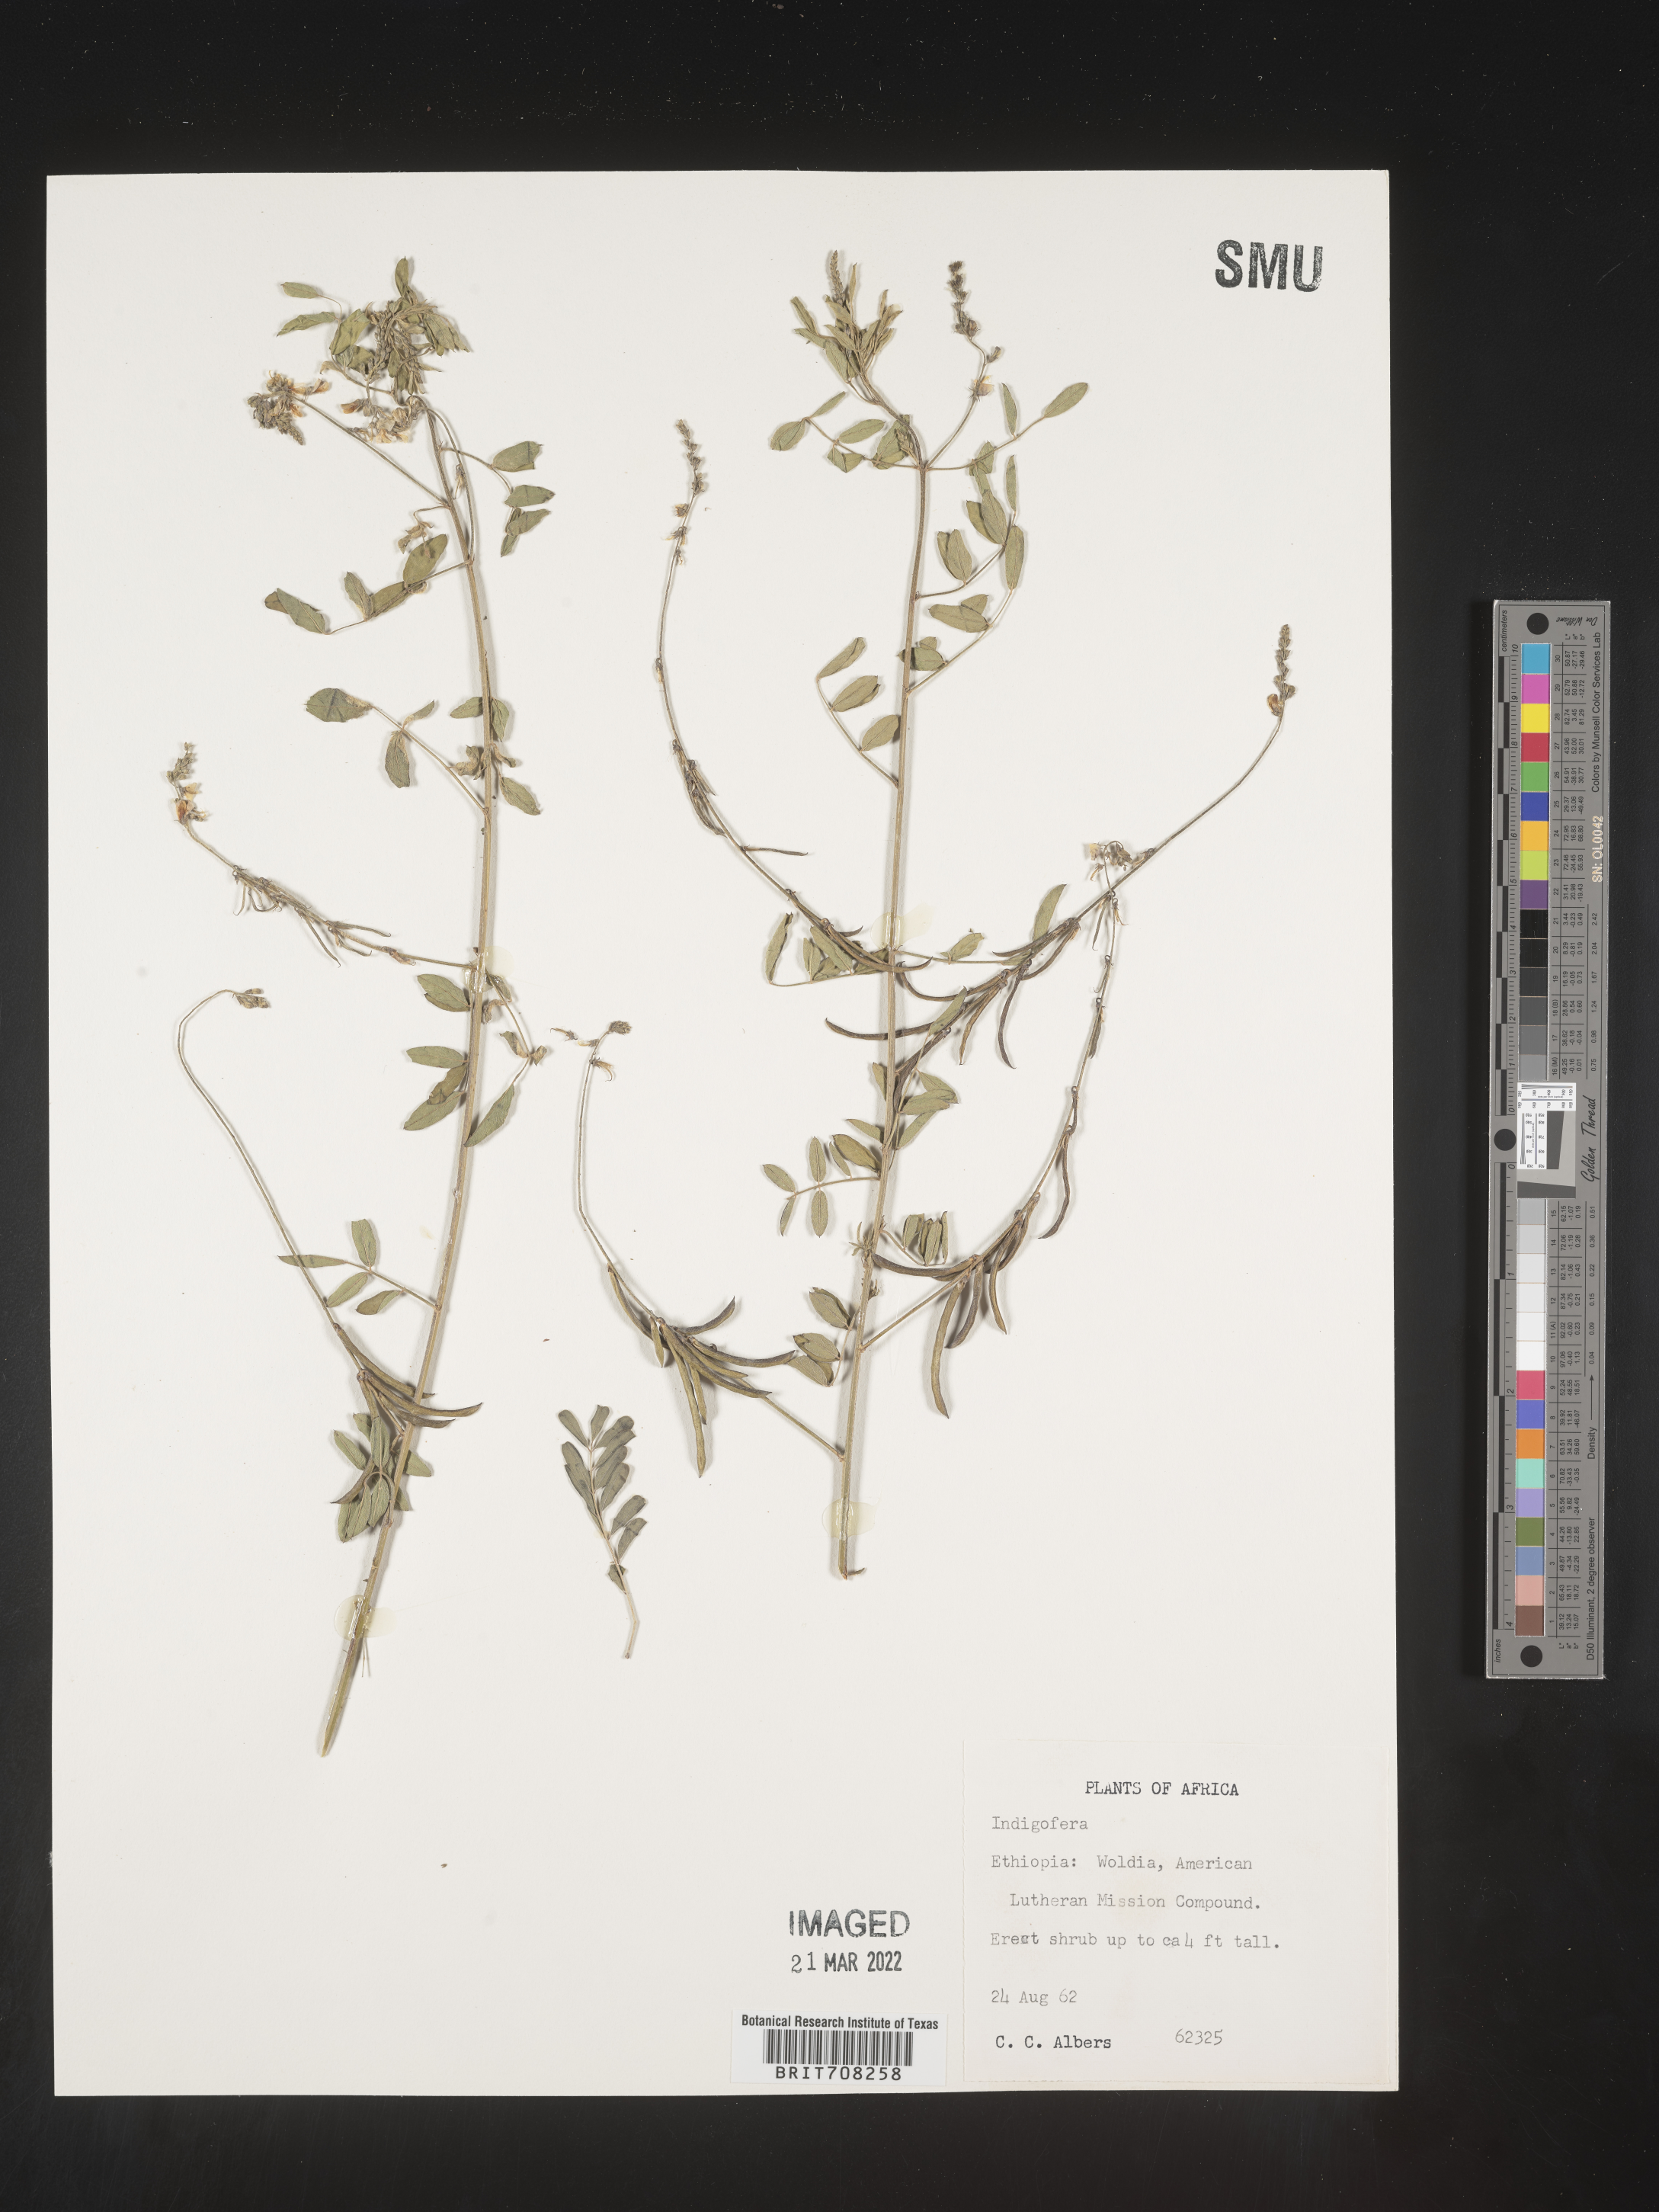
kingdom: Plantae
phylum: Tracheophyta
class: Magnoliopsida
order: Fabales
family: Fabaceae
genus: Indigofera
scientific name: Indigofera
